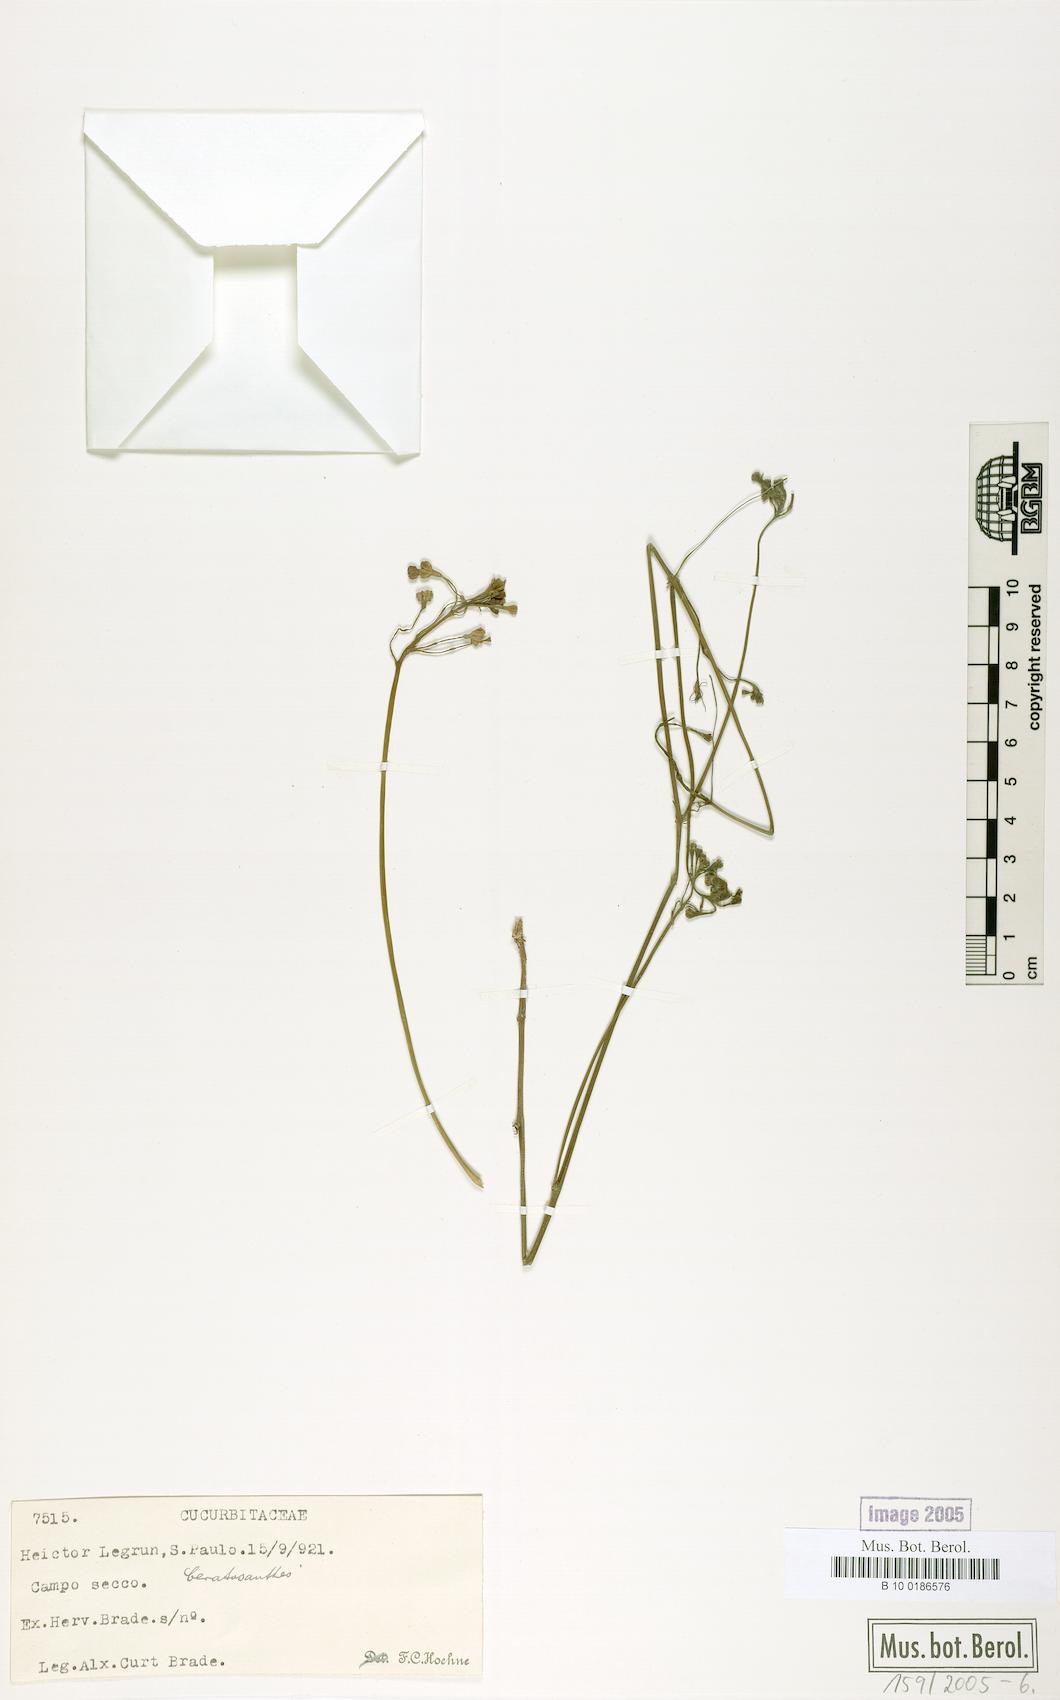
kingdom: Plantae
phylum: Tracheophyta
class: Magnoliopsida
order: Cucurbitales
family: Cucurbitaceae
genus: Ceratosanthes
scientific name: Ceratosanthes
